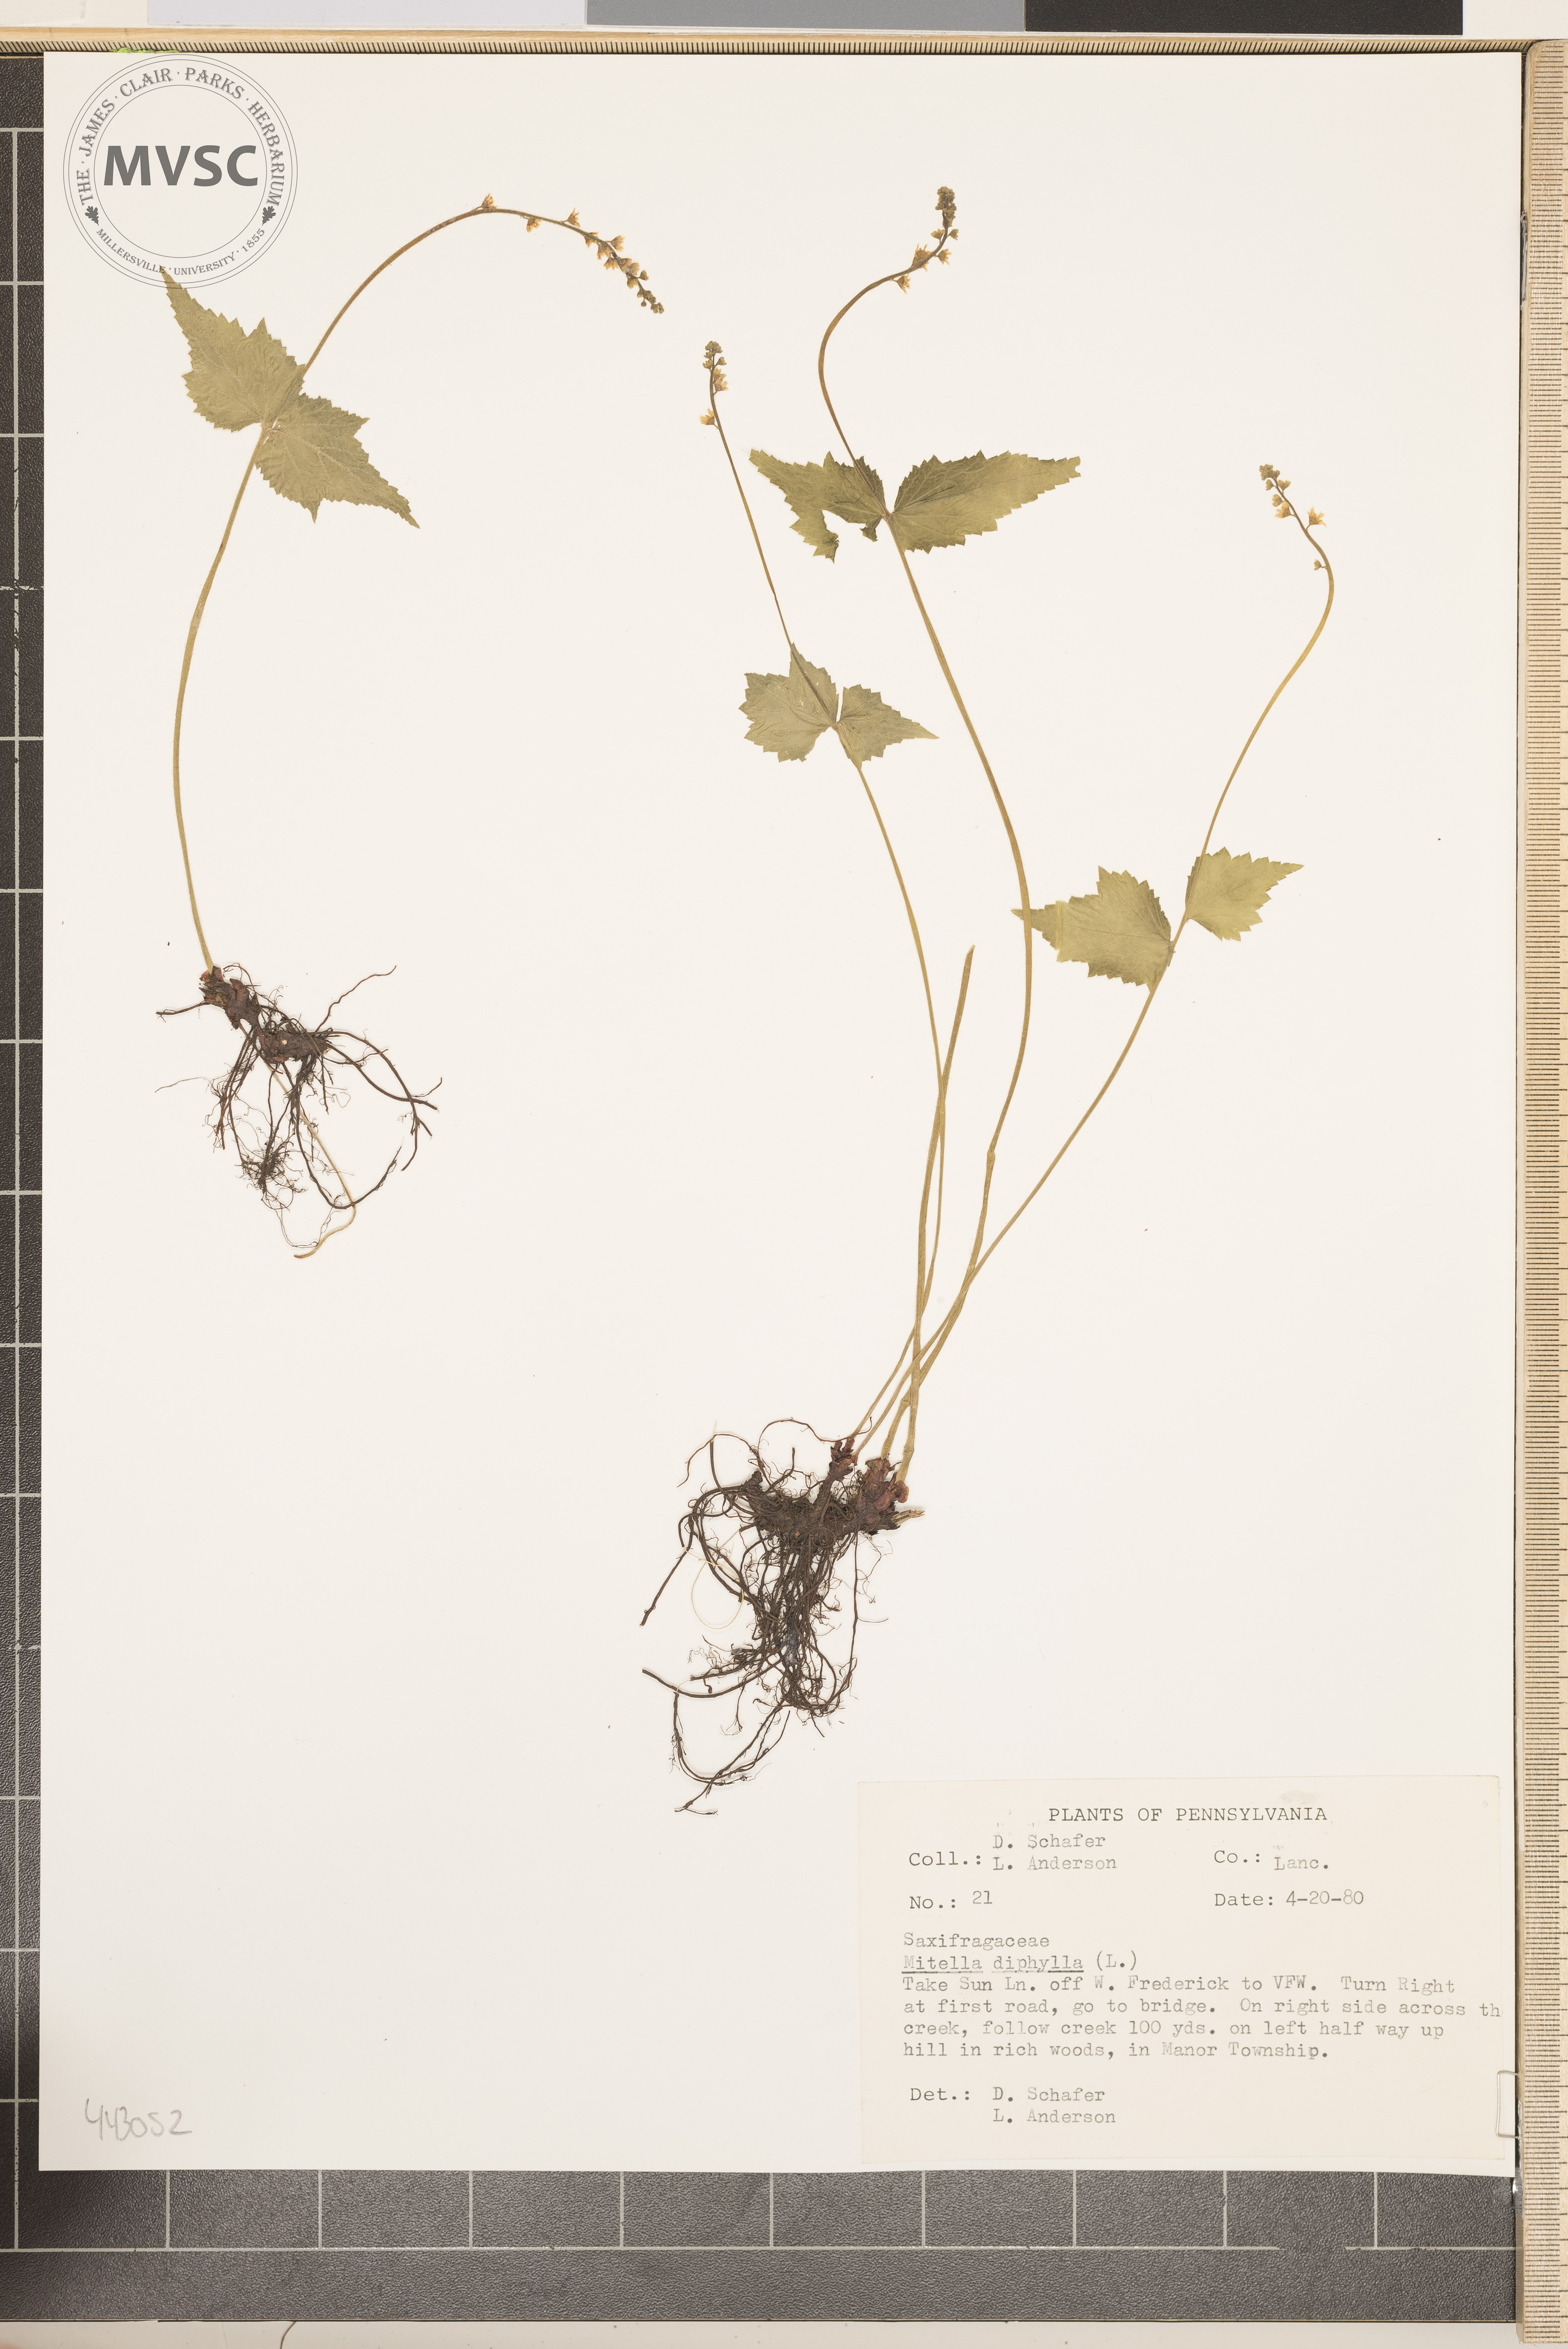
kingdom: Plantae
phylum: Tracheophyta
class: Magnoliopsida
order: Saxifragales
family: Saxifragaceae
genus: Mitella
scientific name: Mitella diphylla
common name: Coolwort
